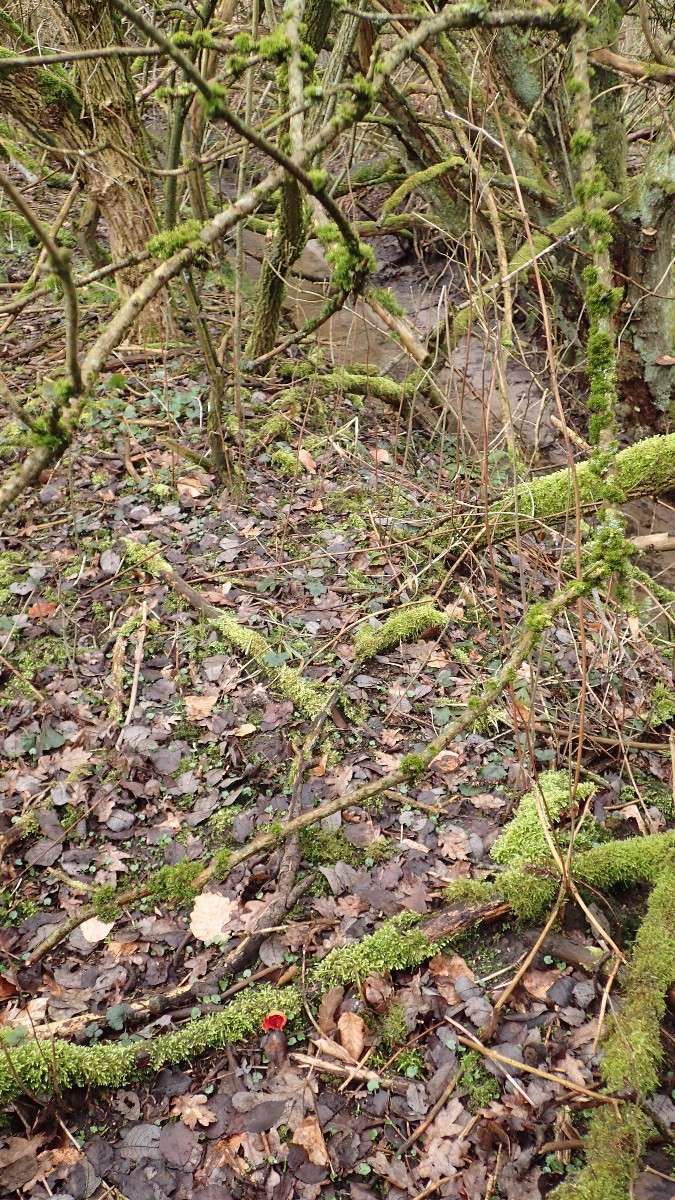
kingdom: Fungi
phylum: Ascomycota
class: Pezizomycetes
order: Pezizales
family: Sarcoscyphaceae
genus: Sarcoscypha
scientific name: Sarcoscypha austriaca
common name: krølhåret pragtbæger
